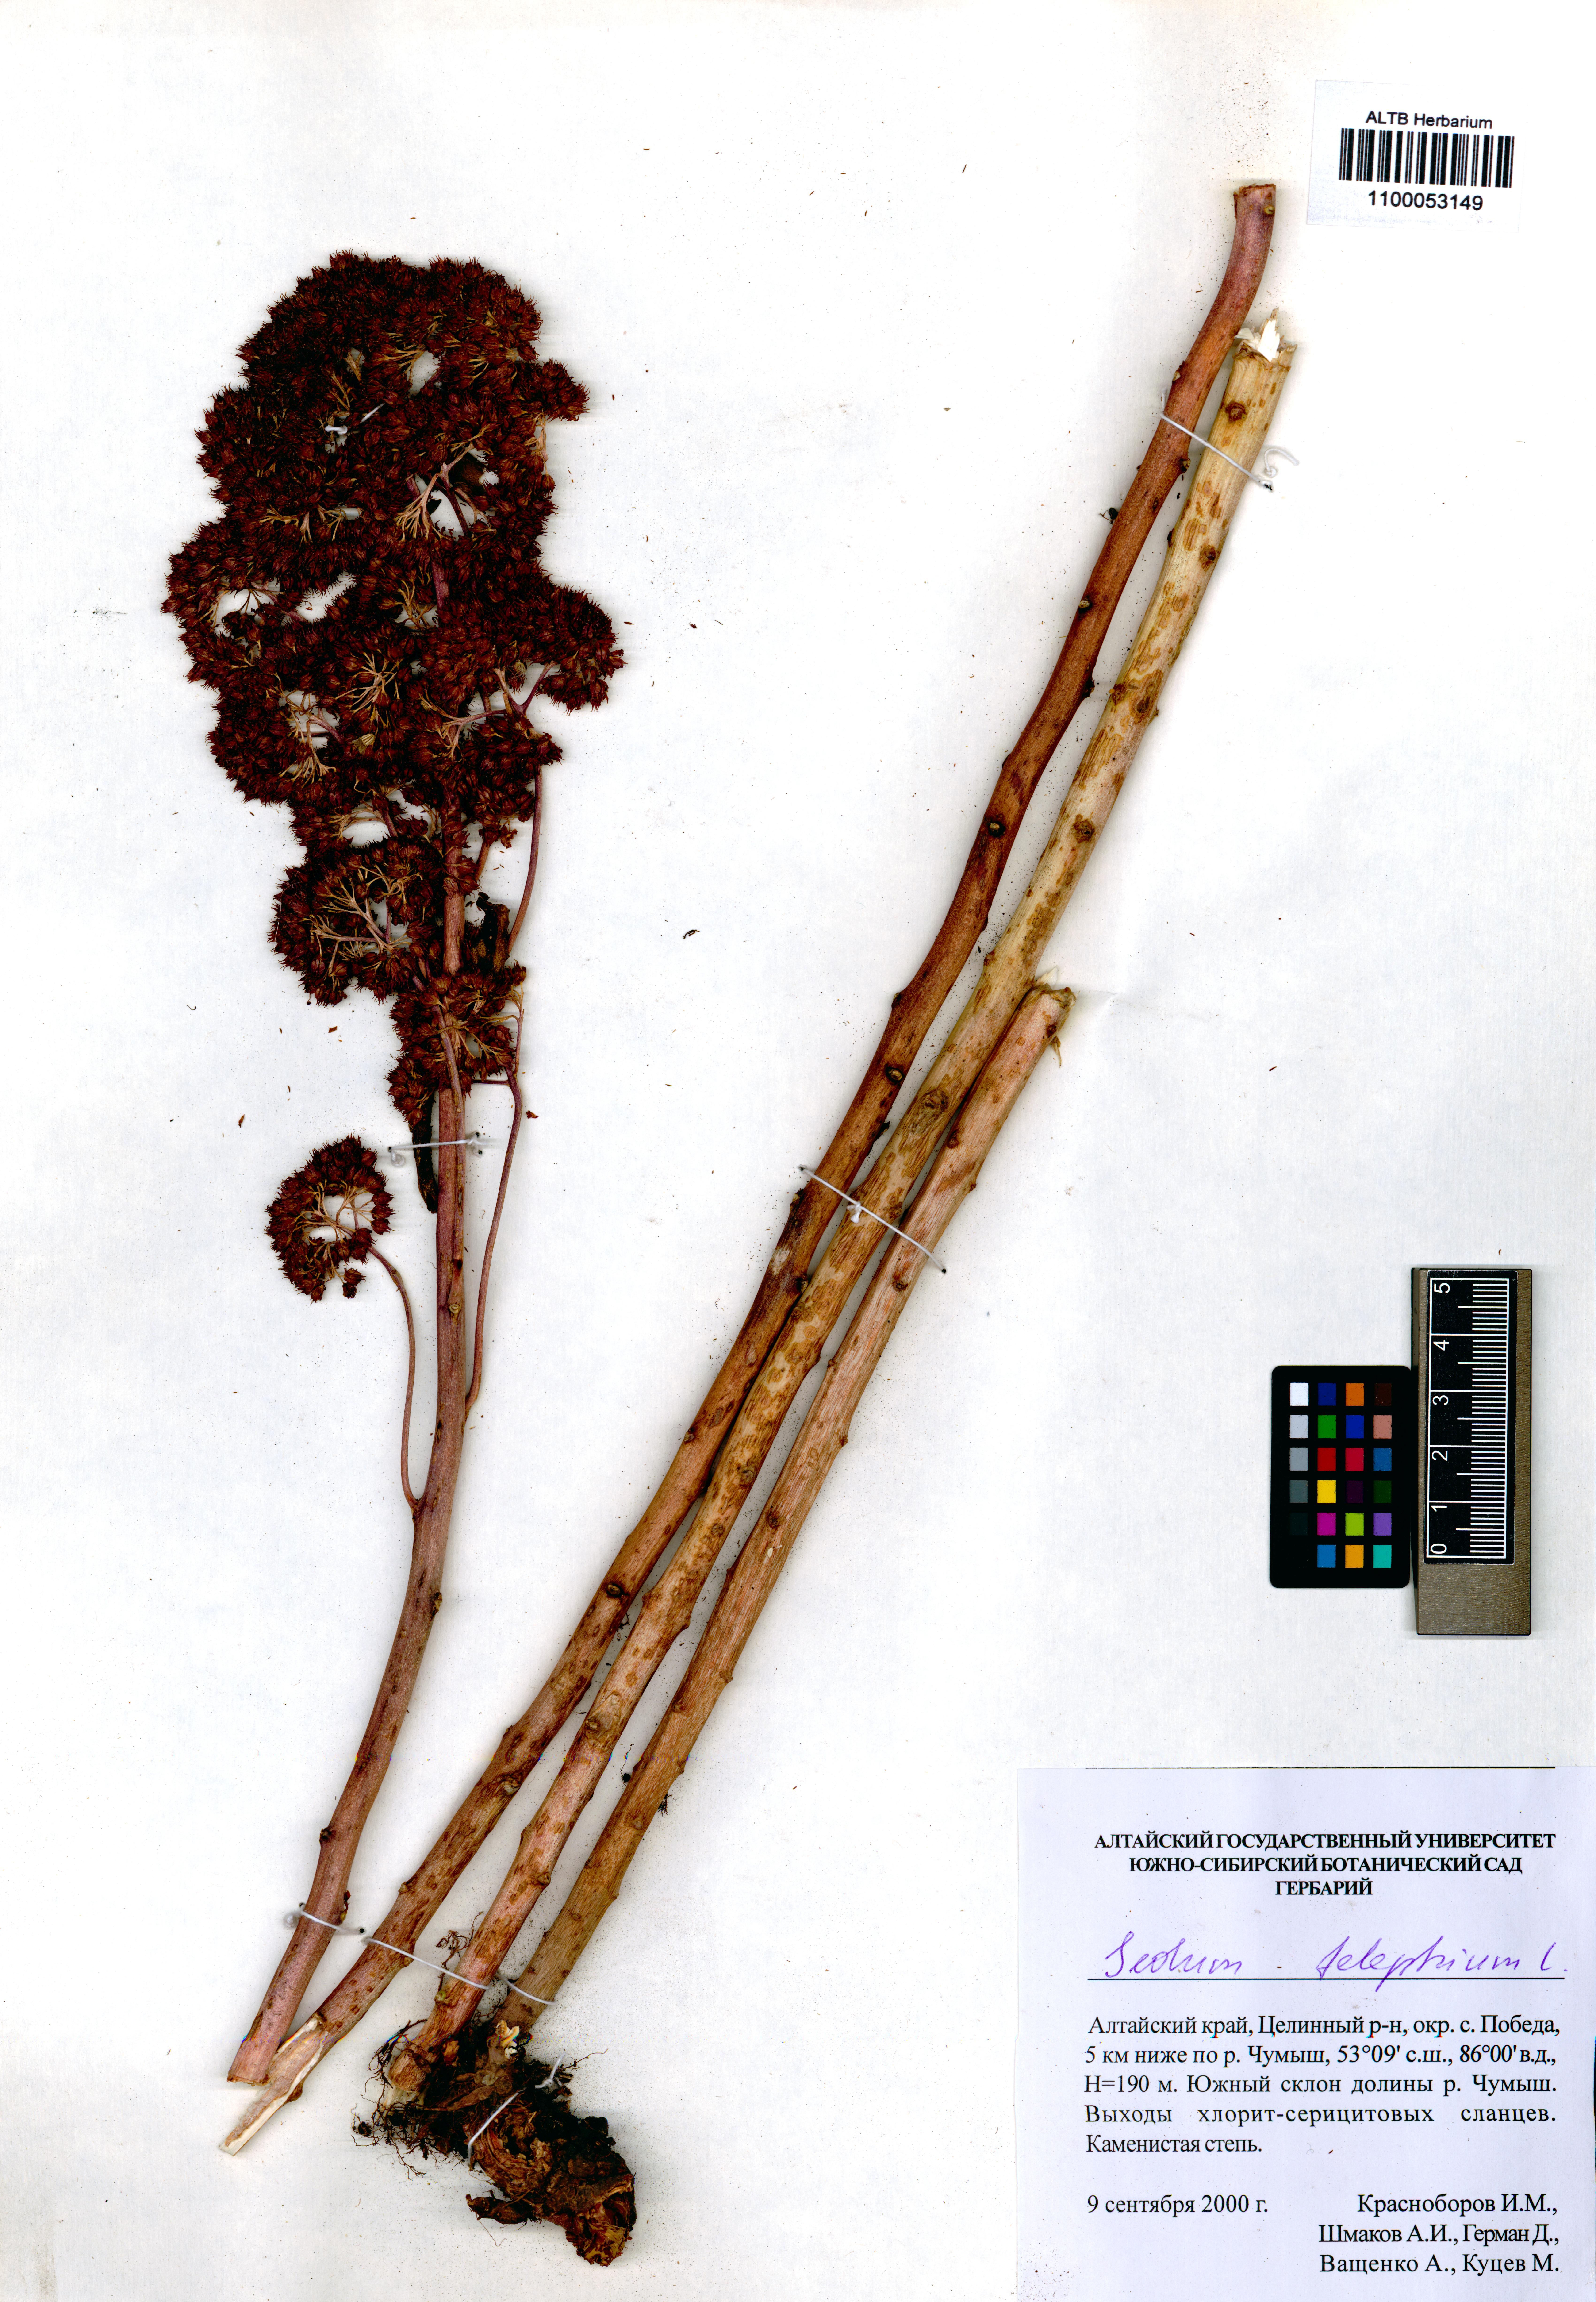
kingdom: Plantae
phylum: Tracheophyta
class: Magnoliopsida
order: Saxifragales
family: Crassulaceae
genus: Hylotelephium
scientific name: Hylotelephium telephium
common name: Live-forever
